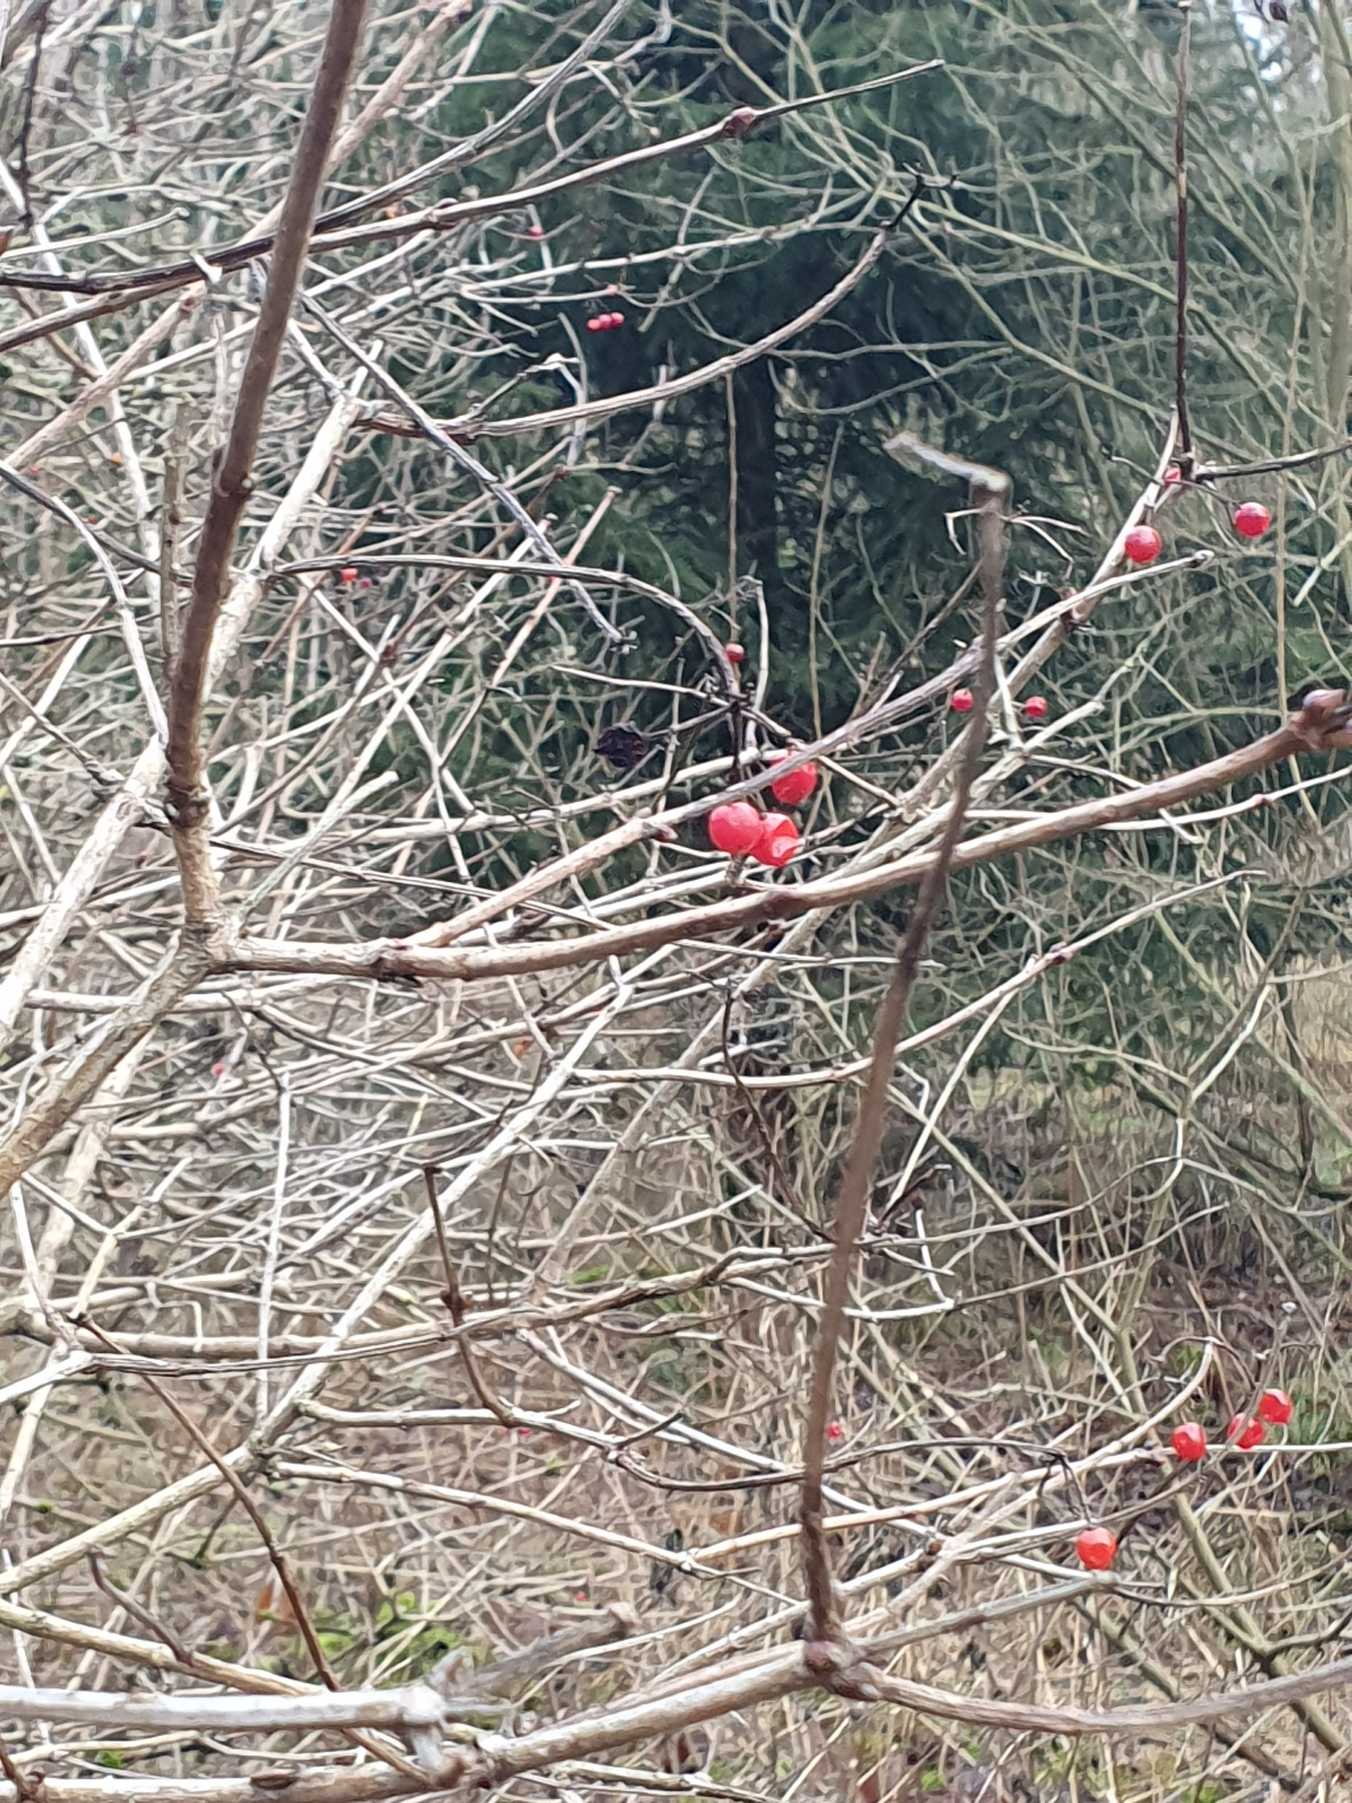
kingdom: Plantae
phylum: Tracheophyta
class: Magnoliopsida
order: Dipsacales
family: Viburnaceae
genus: Viburnum
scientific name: Viburnum opulus
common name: Kvalkved
